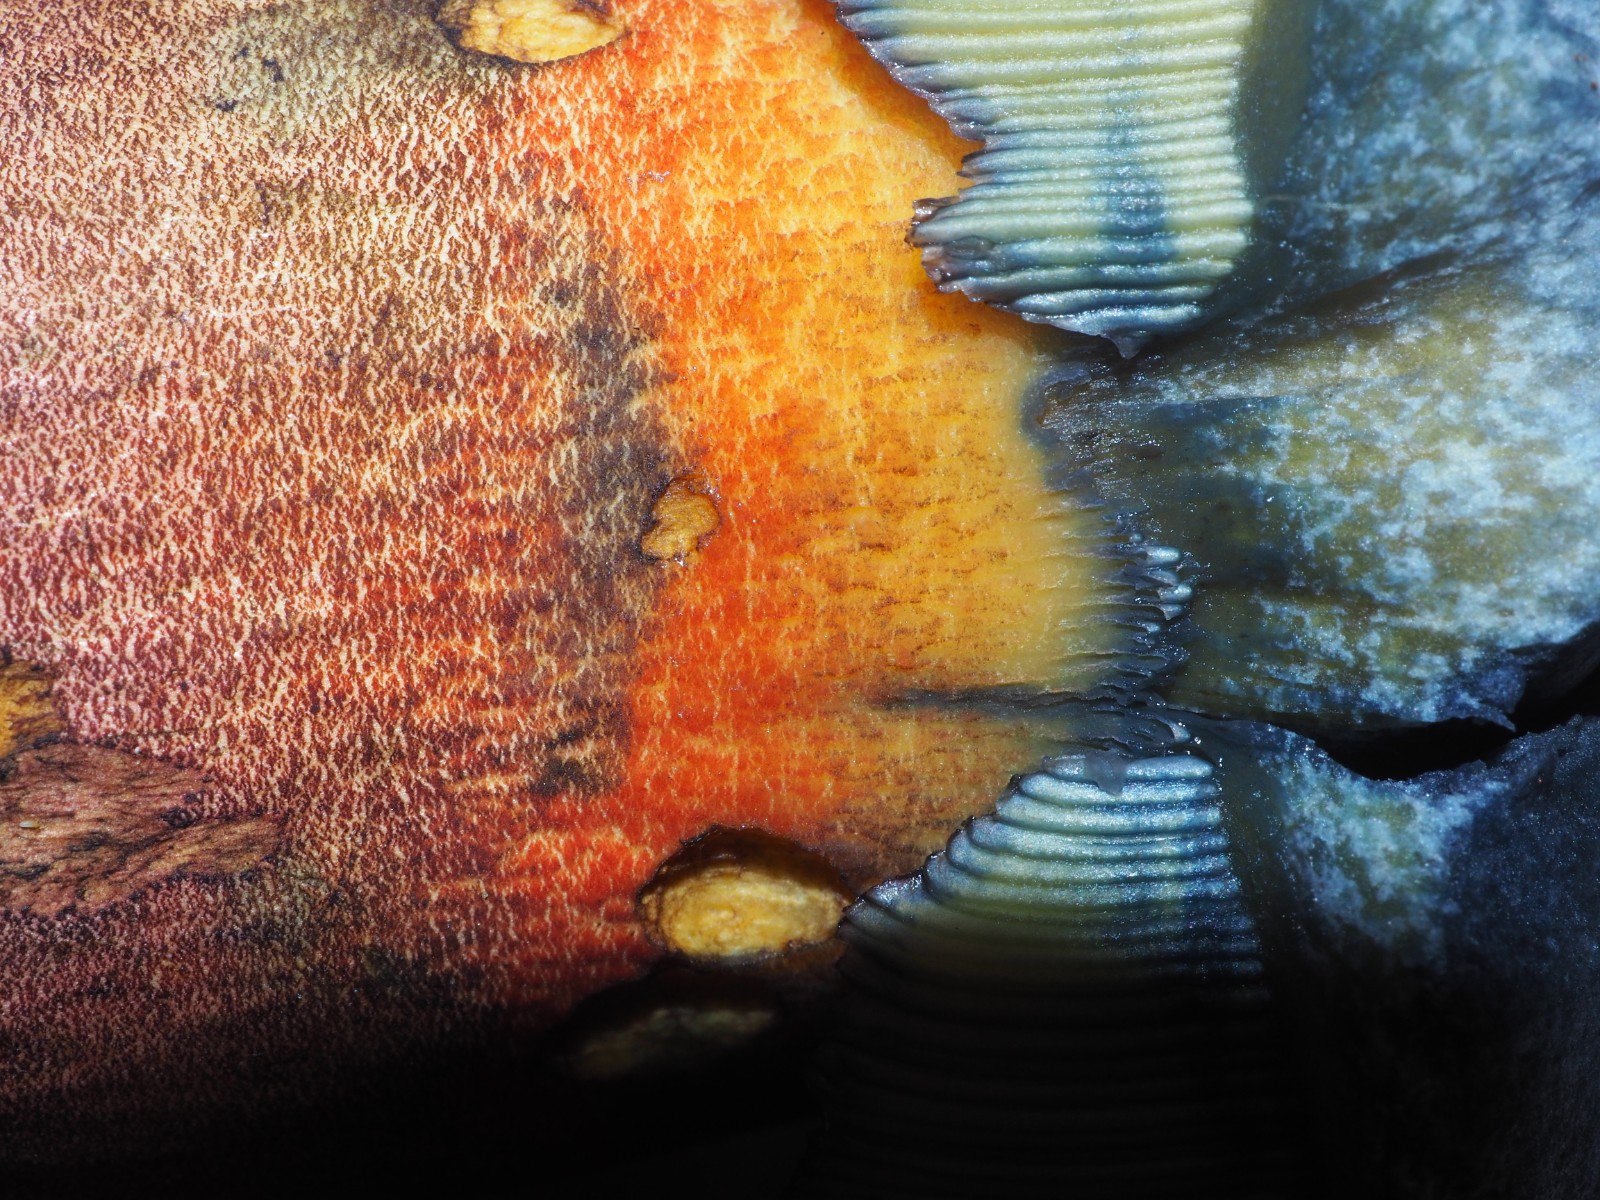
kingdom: Fungi
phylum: Basidiomycota
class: Agaricomycetes
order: Boletales
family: Boletaceae
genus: Neoboletus
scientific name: Neoboletus erythropus
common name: punktstokket indigorørhat
